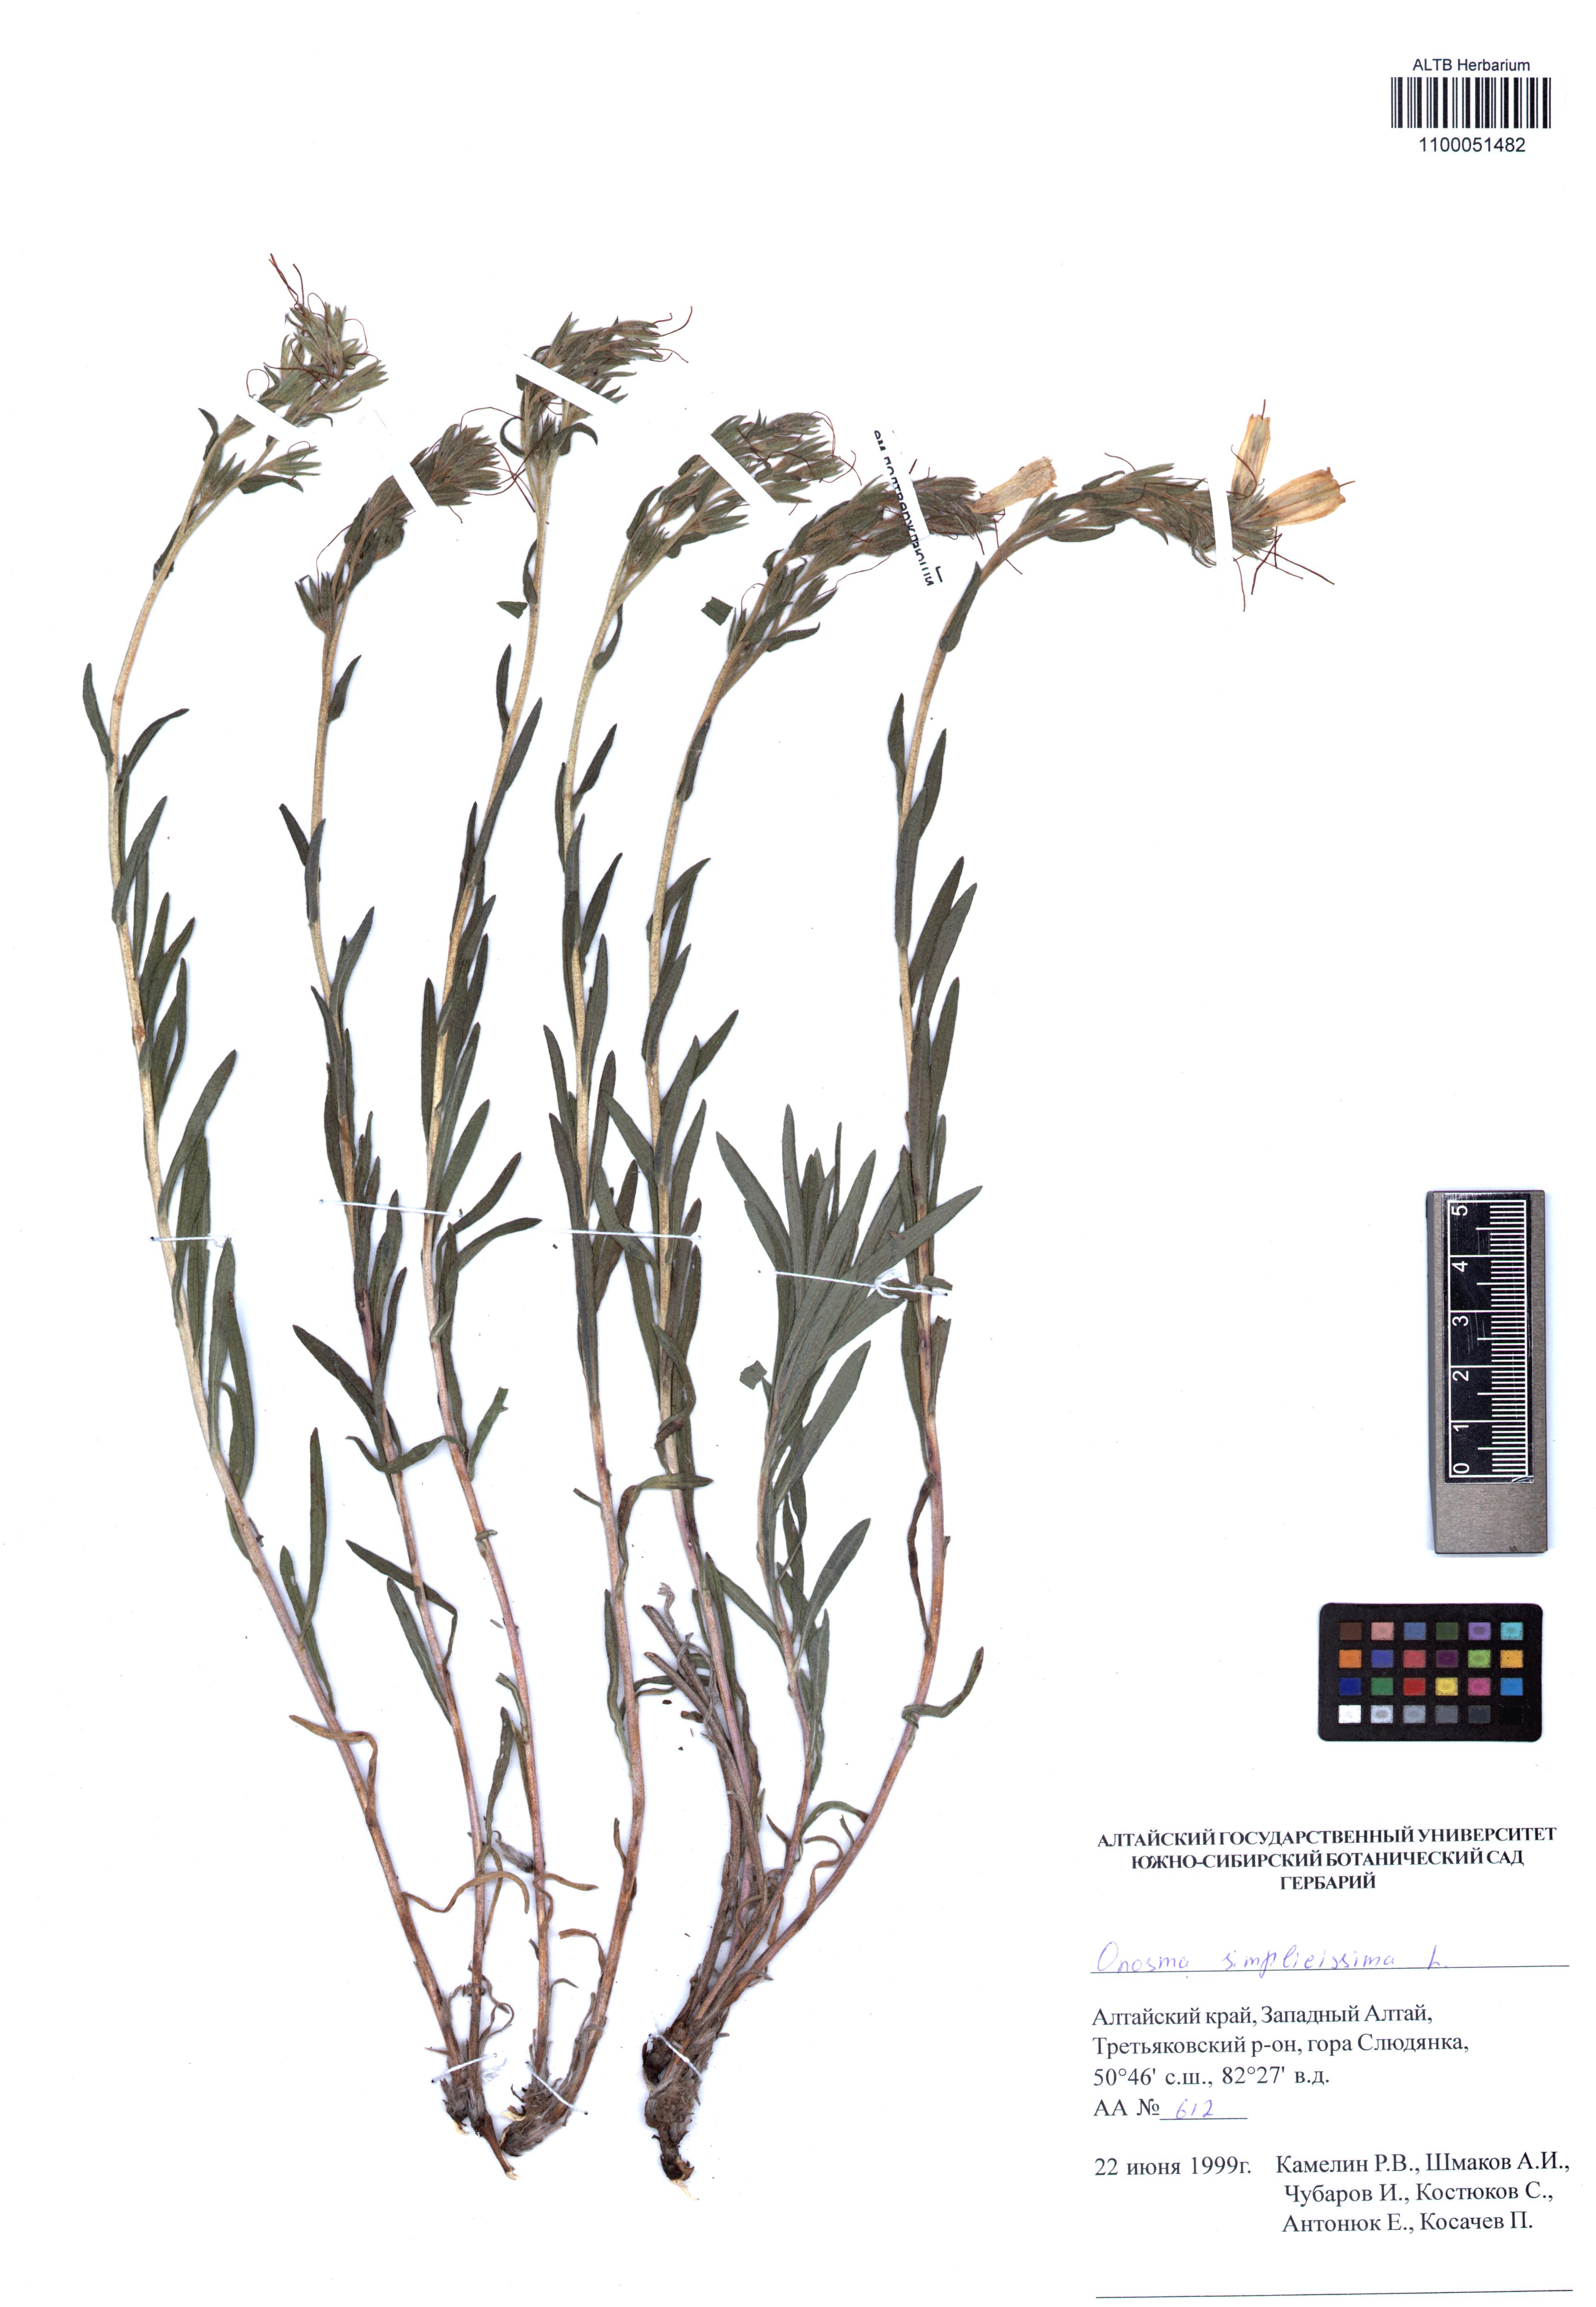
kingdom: Plantae
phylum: Tracheophyta
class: Magnoliopsida
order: Boraginales
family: Boraginaceae
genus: Onosma
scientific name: Onosma simplicissima
